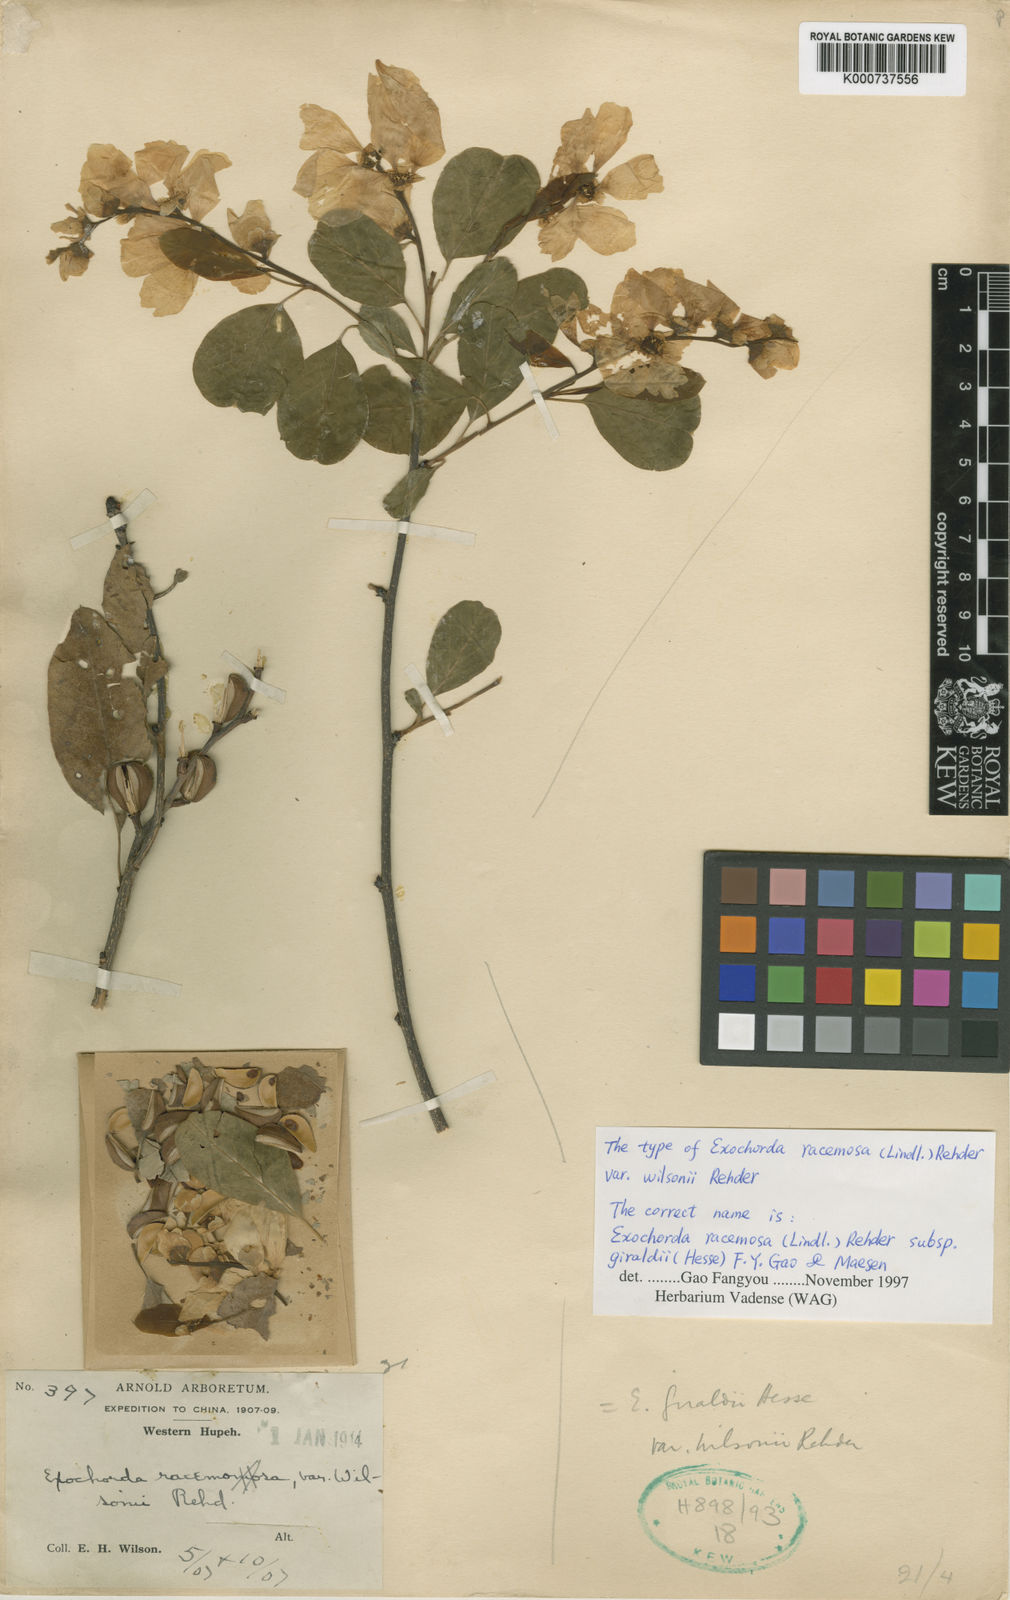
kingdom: Plantae
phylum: Tracheophyta
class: Magnoliopsida
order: Rosales
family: Rosaceae
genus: Exochorda
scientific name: Exochorda racemosa
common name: Common pearlbrush
